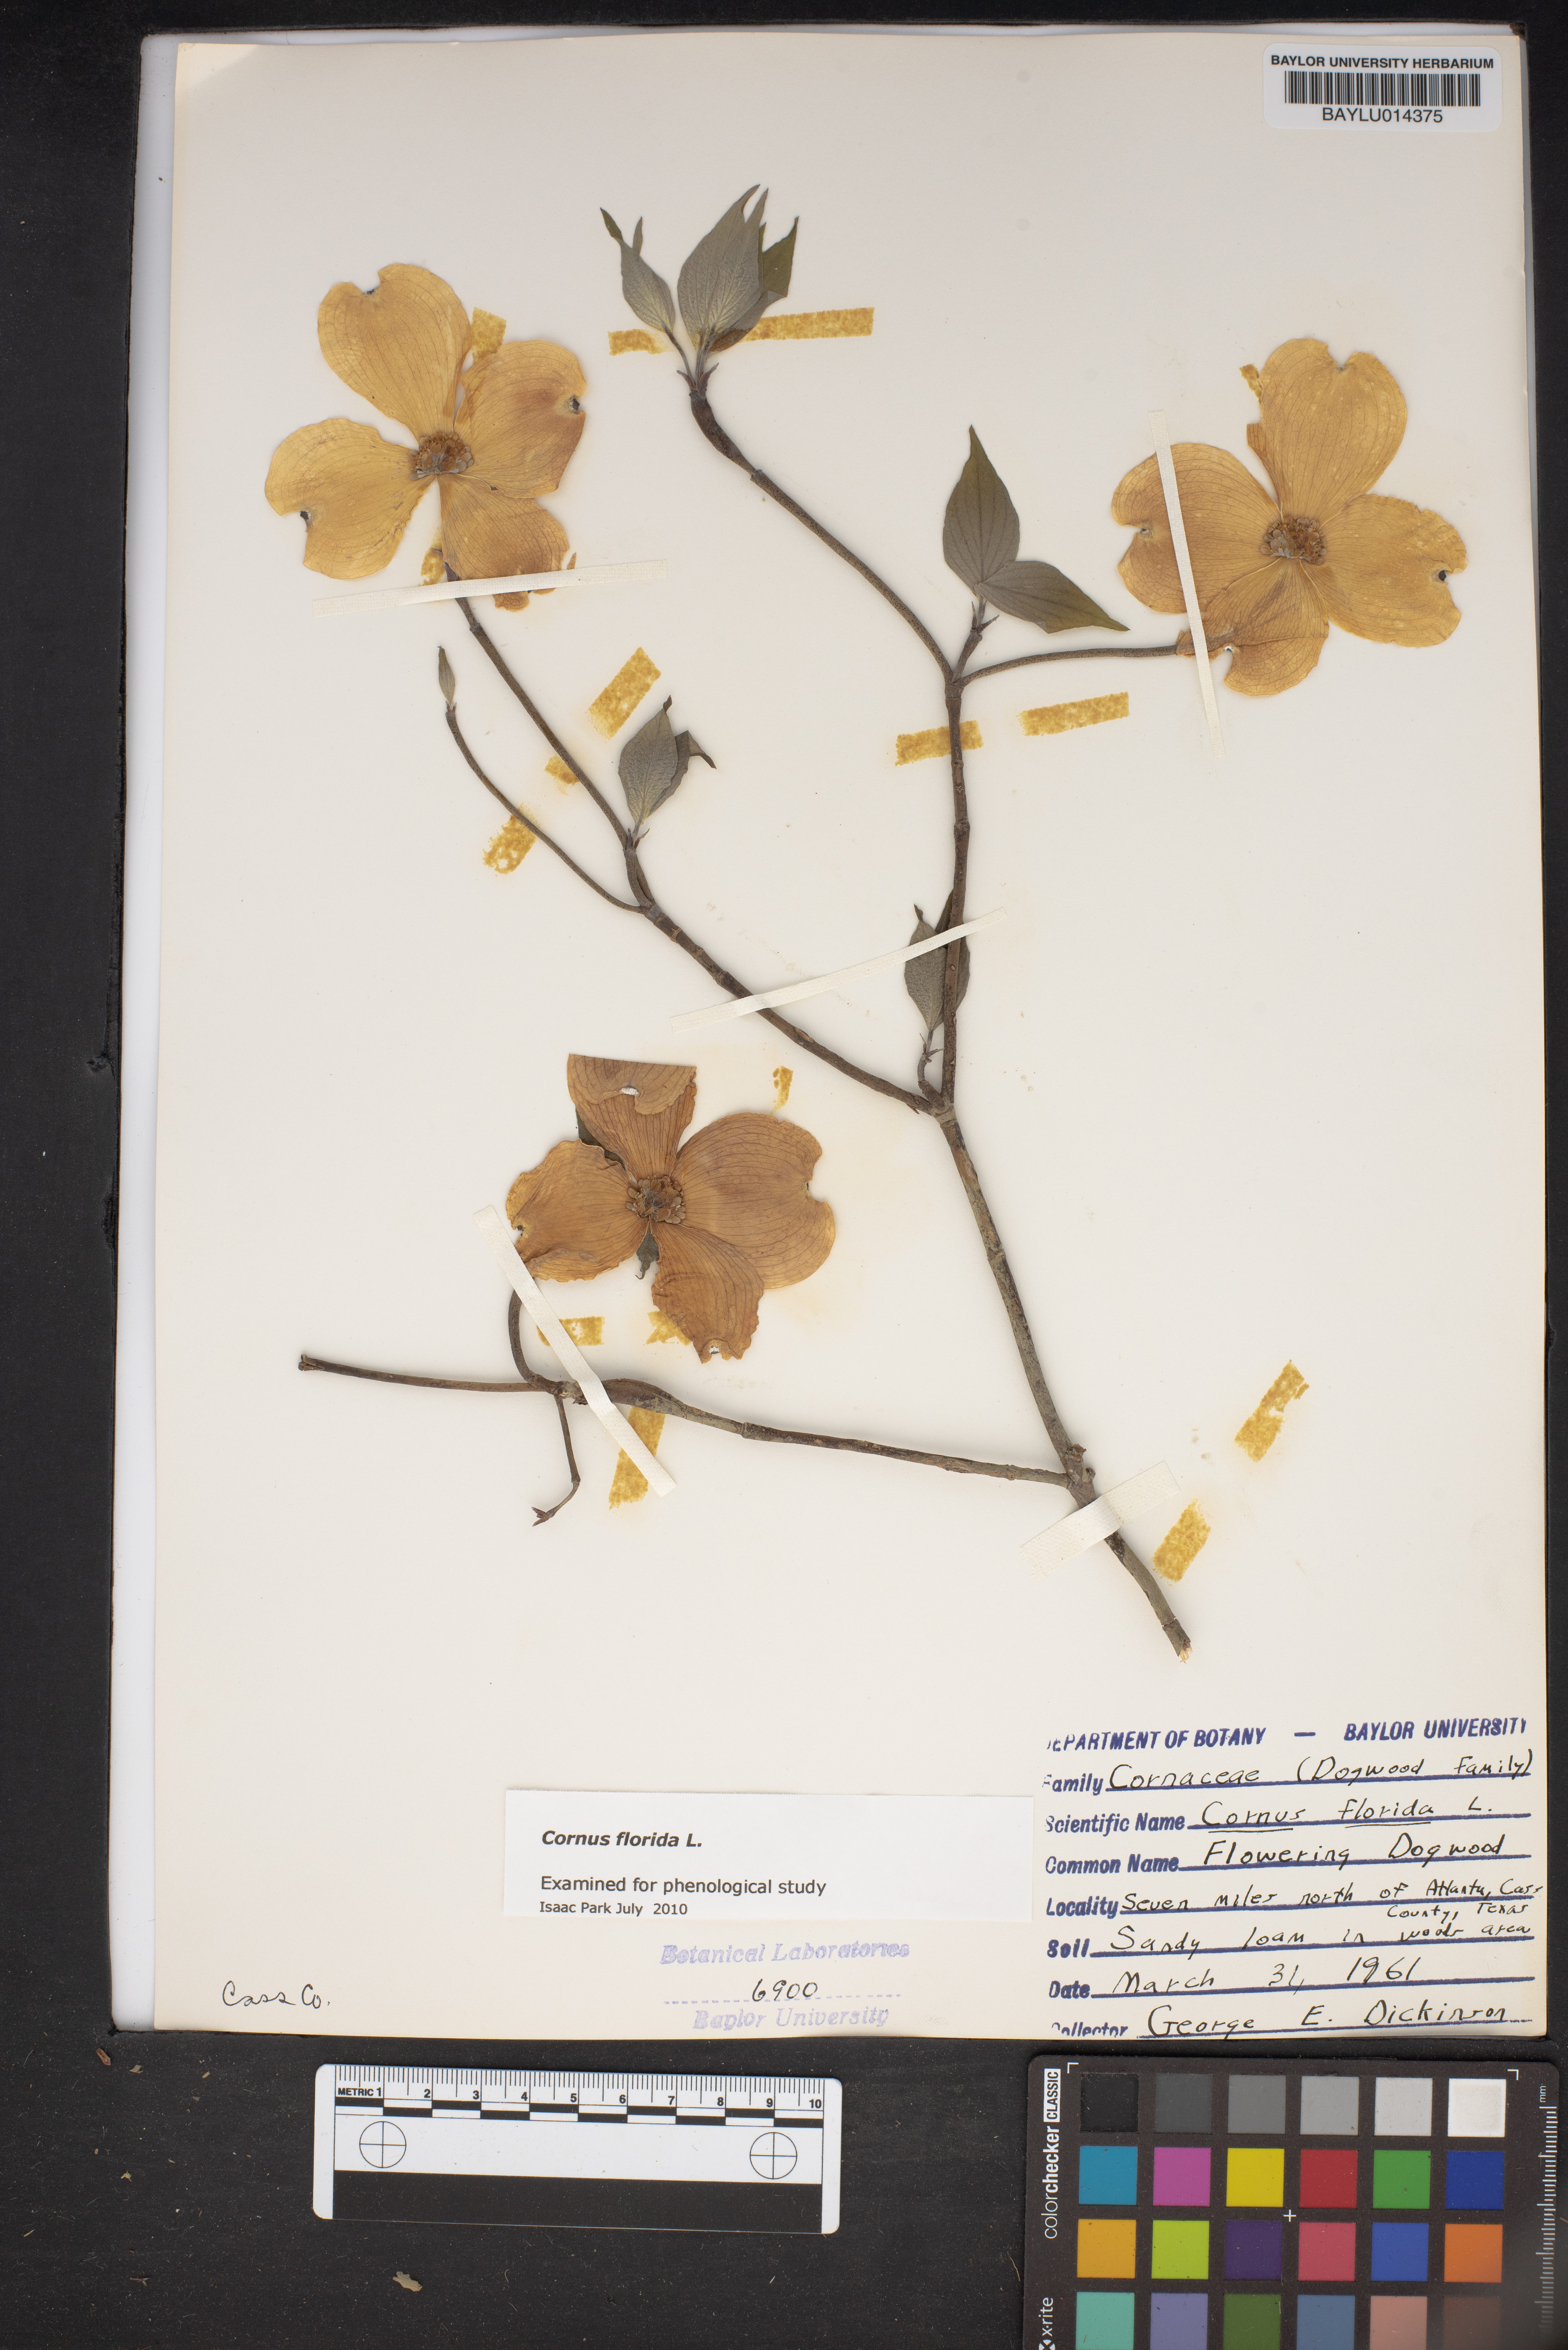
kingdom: Plantae
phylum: Tracheophyta
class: Magnoliopsida
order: Cornales
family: Cornaceae
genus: Cornus
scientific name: Cornus florida
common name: Flowering dogwood
